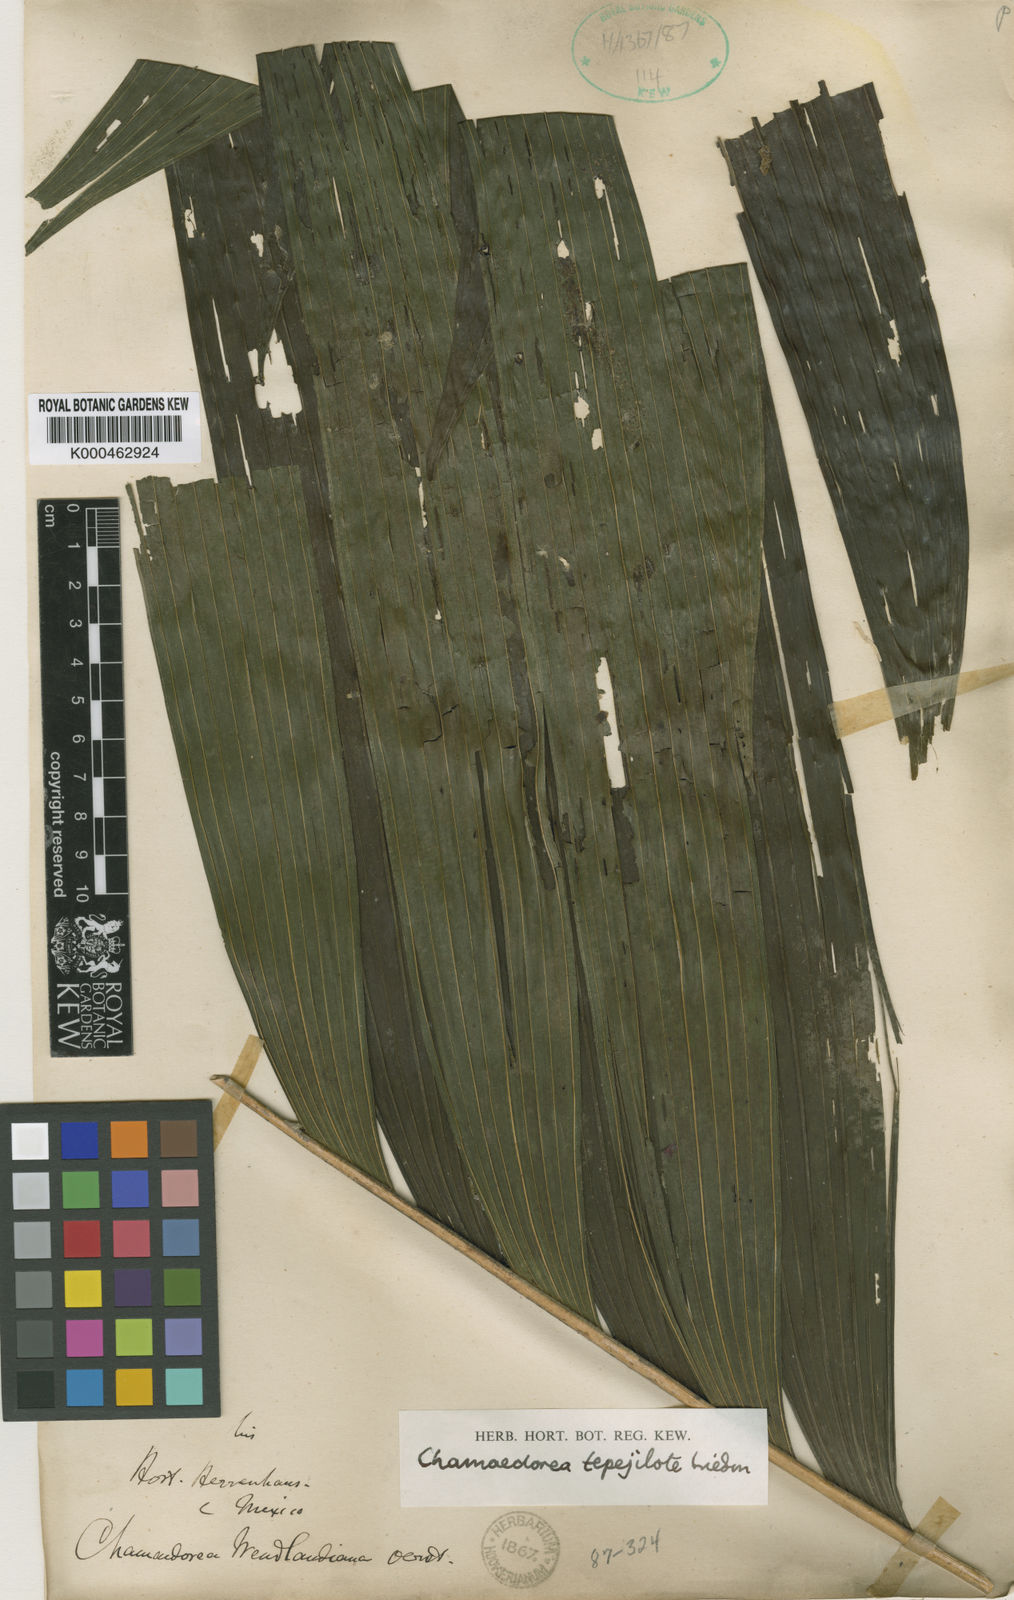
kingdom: Plantae
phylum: Tracheophyta
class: Liliopsida
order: Arecales
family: Arecaceae
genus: Chamaedorea
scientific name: Chamaedorea tepejilote
